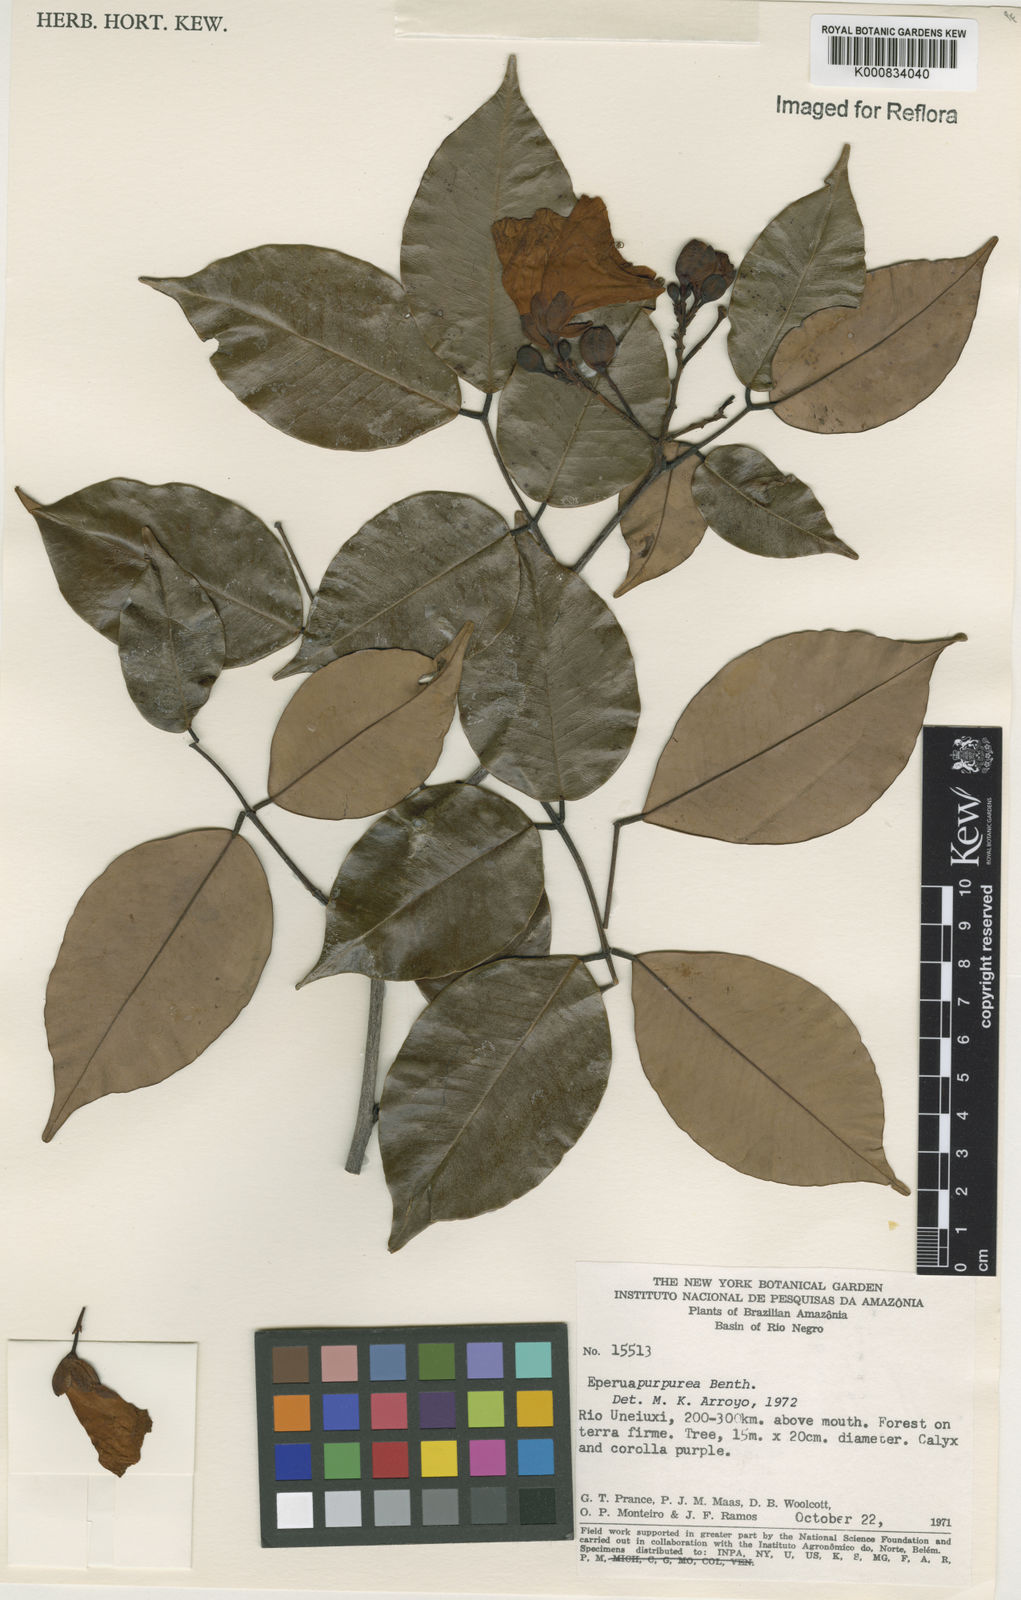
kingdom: Plantae
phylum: Tracheophyta
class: Magnoliopsida
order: Fabales
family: Fabaceae
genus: Eperua
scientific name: Eperua purpurea
